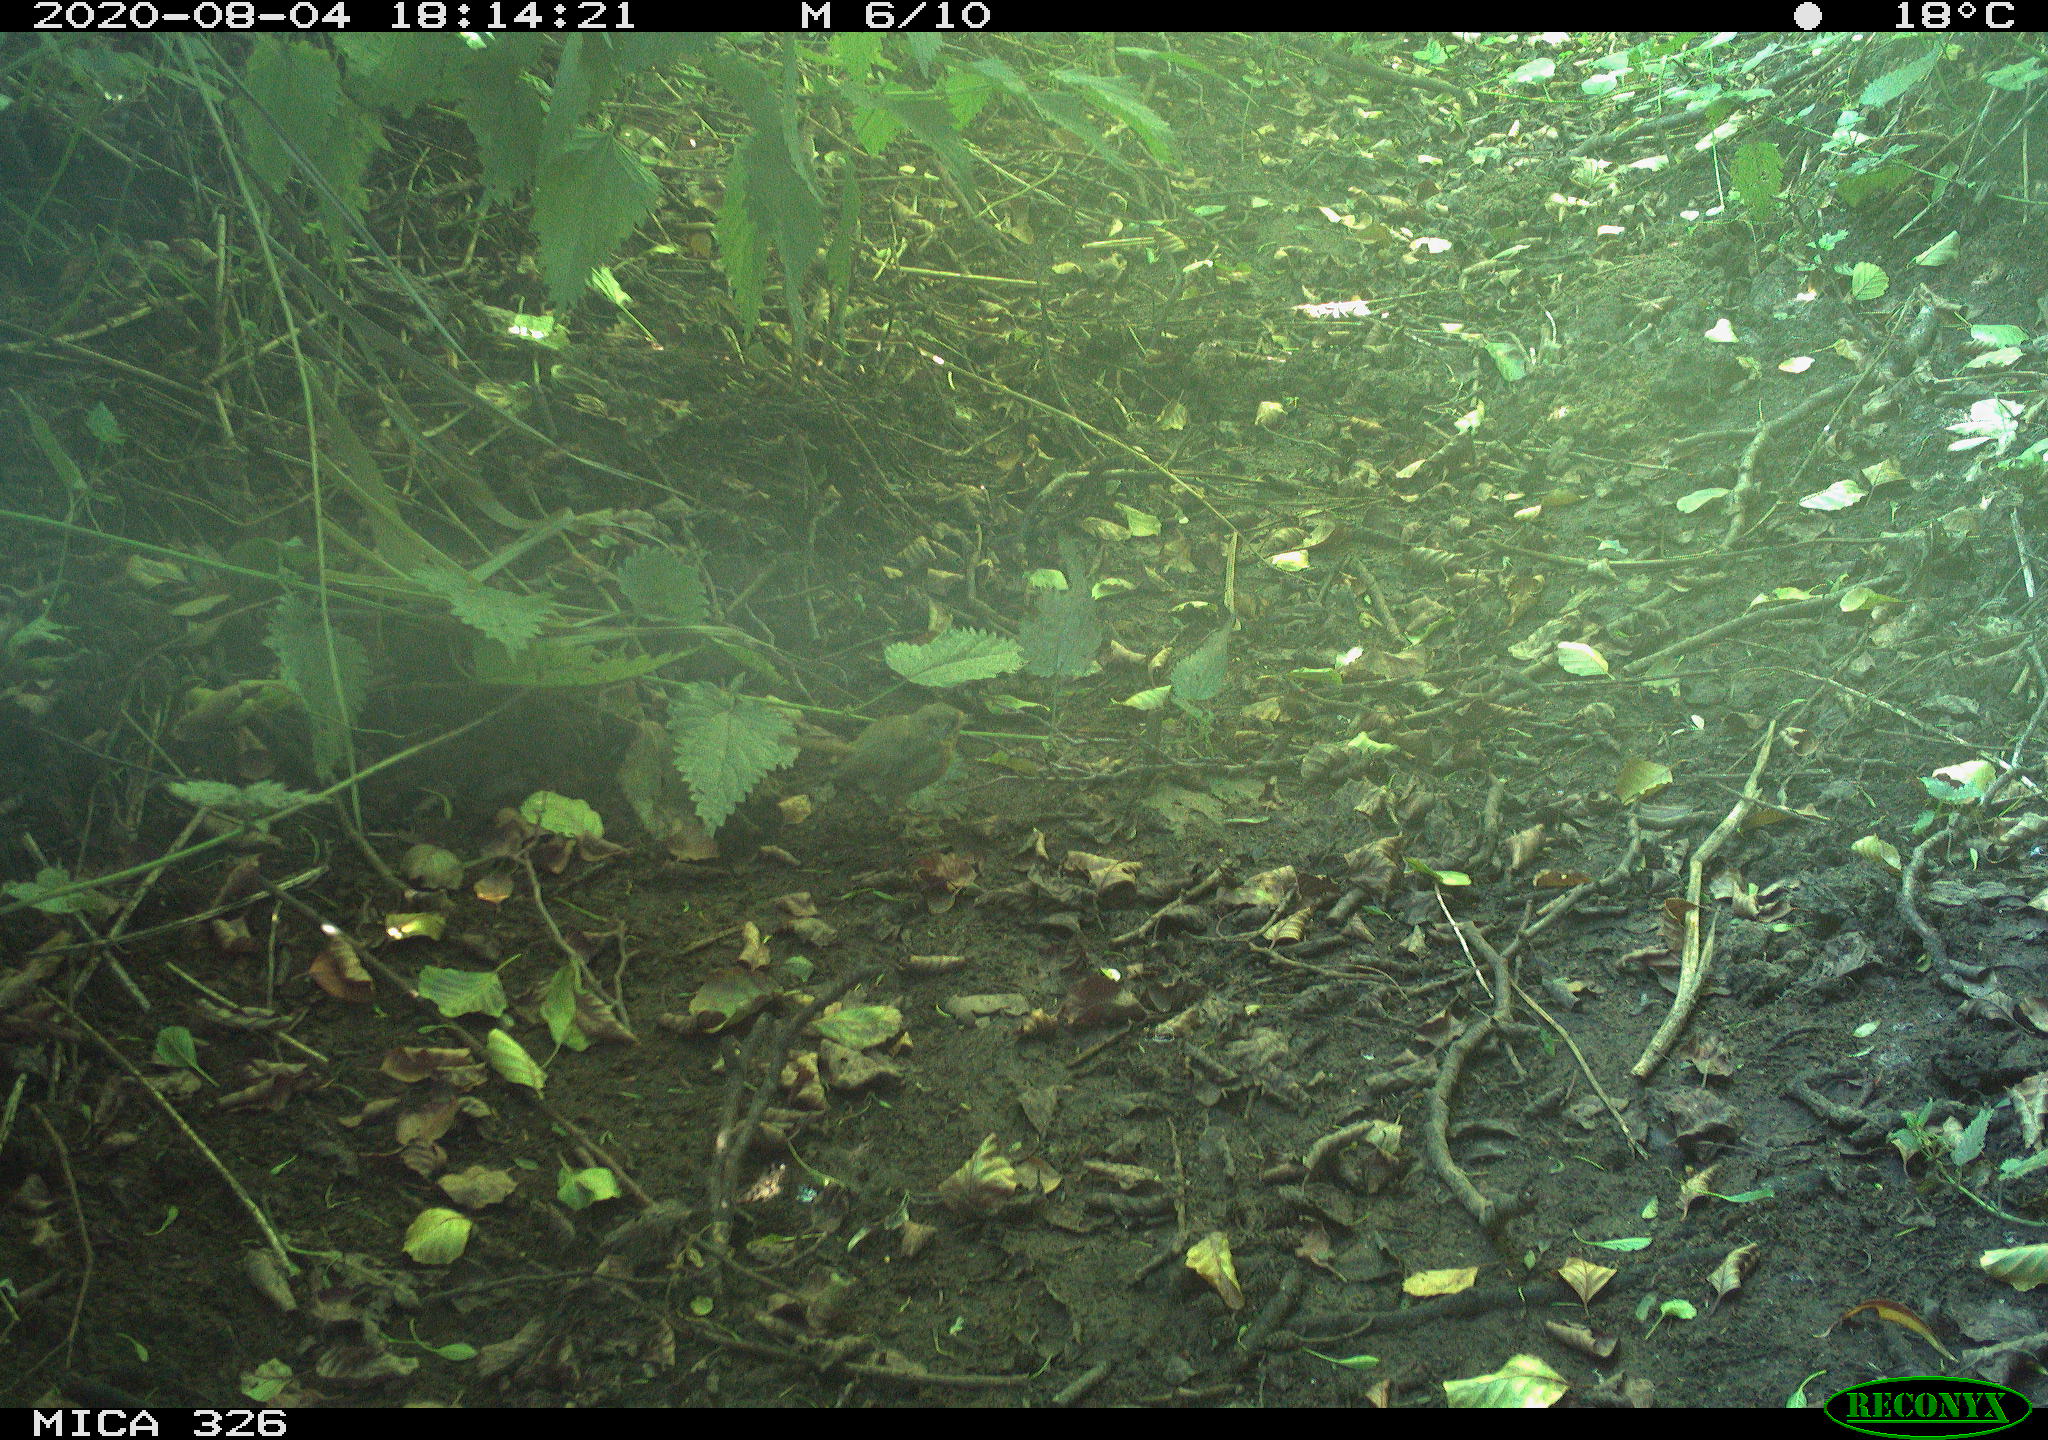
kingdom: Animalia
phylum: Chordata
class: Aves
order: Passeriformes
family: Muscicapidae
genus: Erithacus
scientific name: Erithacus rubecula
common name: European robin
